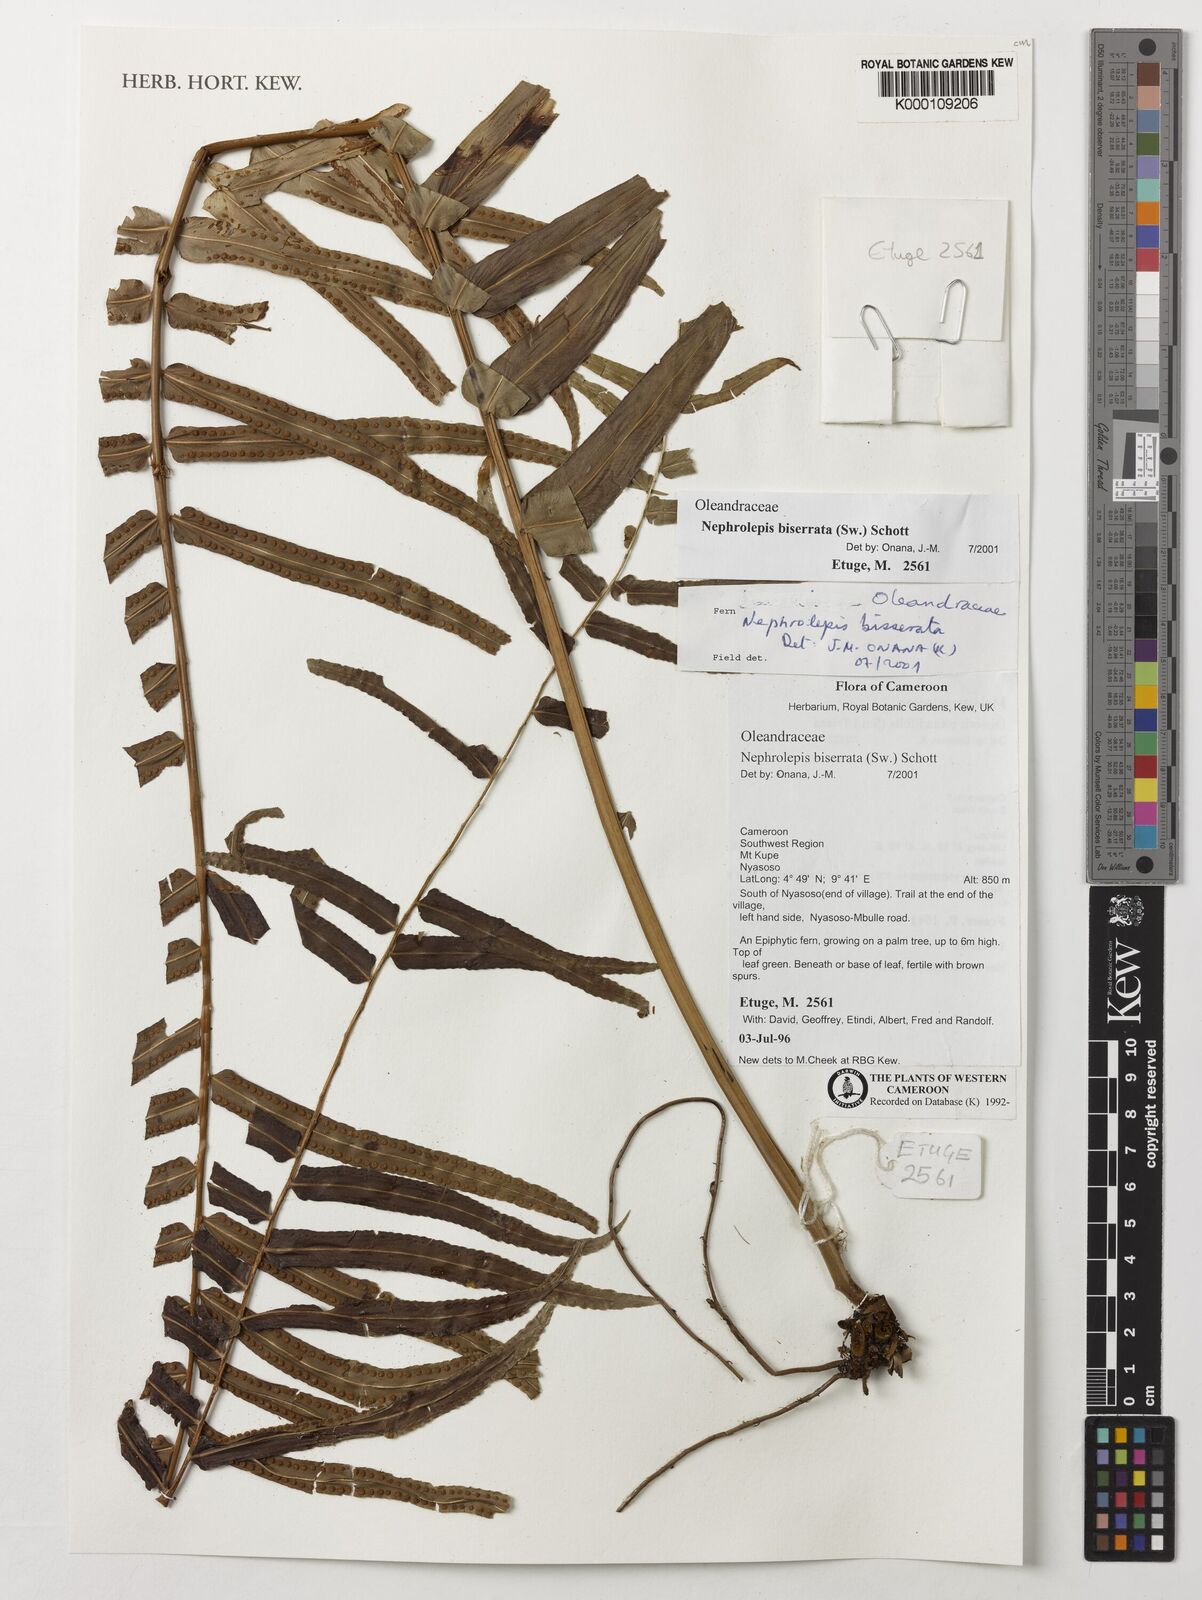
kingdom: Plantae
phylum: Tracheophyta
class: Polypodiopsida
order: Polypodiales
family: Nephrolepidaceae
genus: Nephrolepis
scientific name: Nephrolepis biserrata
